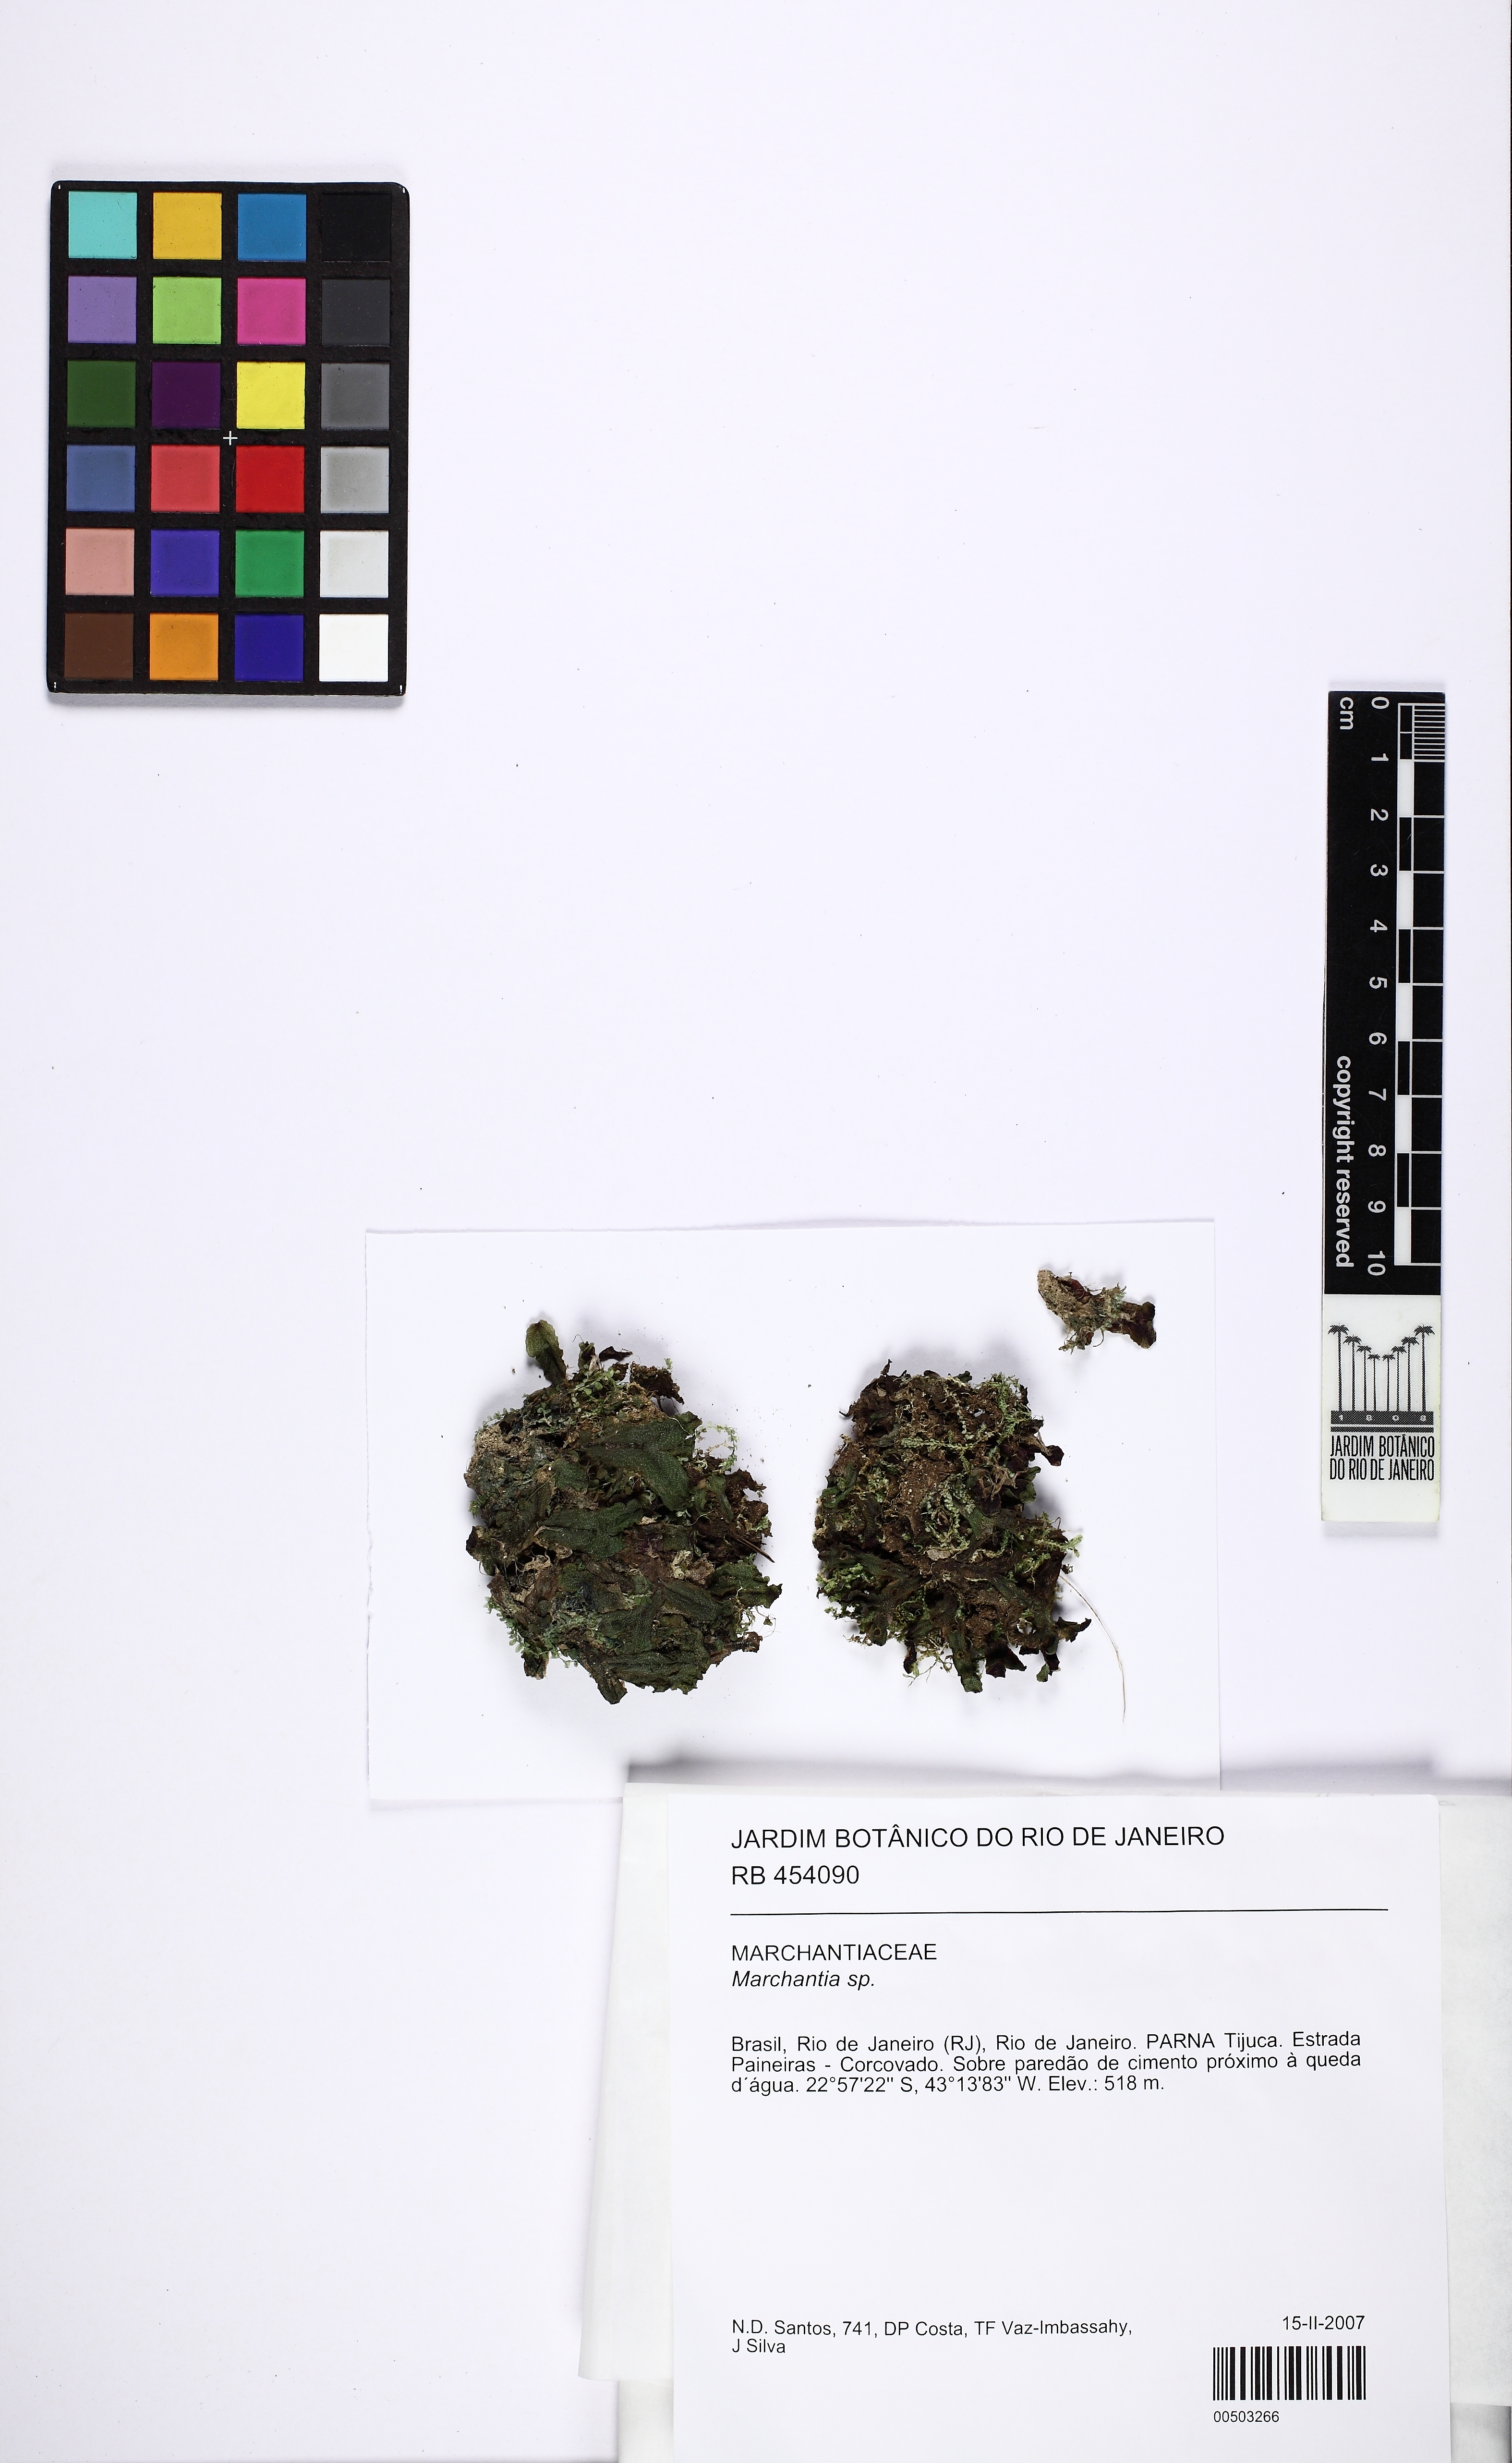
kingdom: Plantae
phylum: Marchantiophyta
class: Marchantiopsida
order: Marchantiales
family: Marchantiaceae
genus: Marchantia
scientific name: Marchantia
